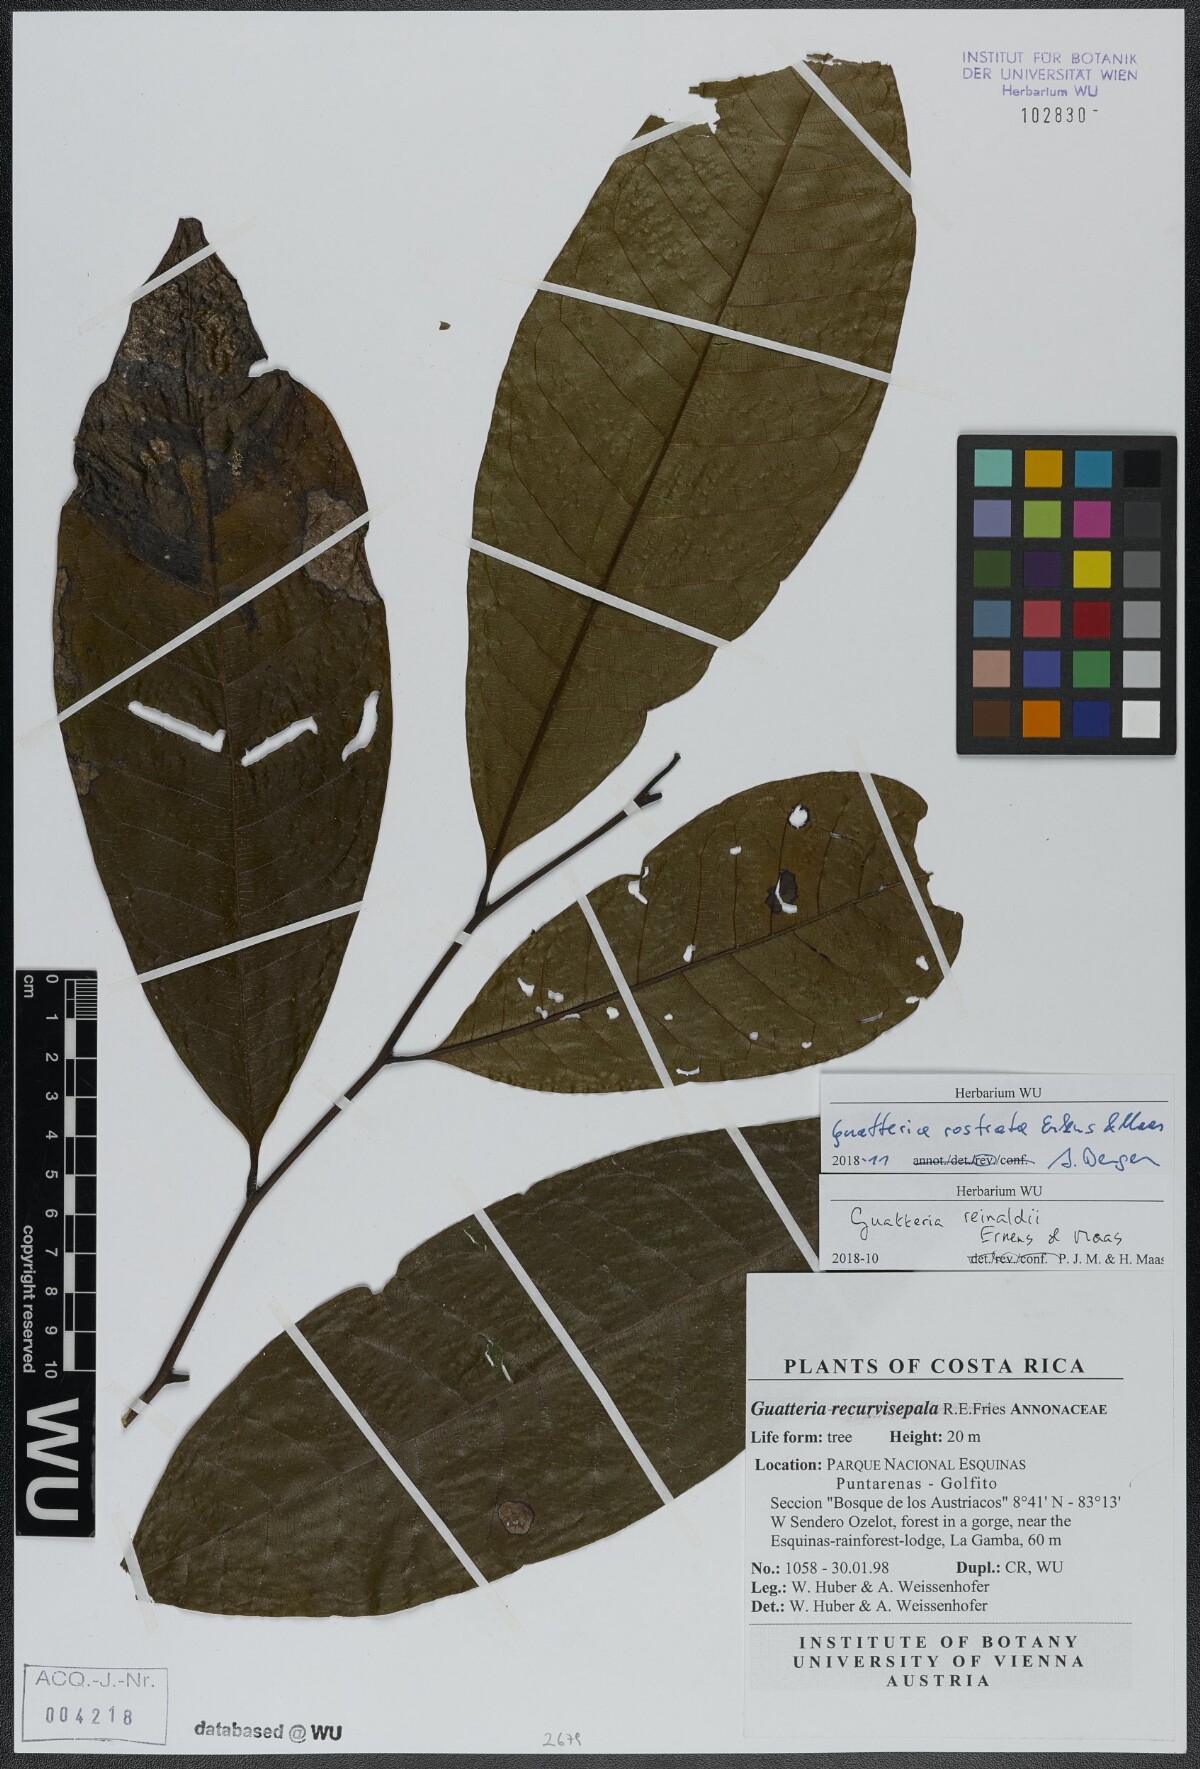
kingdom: Plantae
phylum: Tracheophyta
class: Magnoliopsida
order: Magnoliales
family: Annonaceae
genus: Guatteria
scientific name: Guatteria reinaldii
